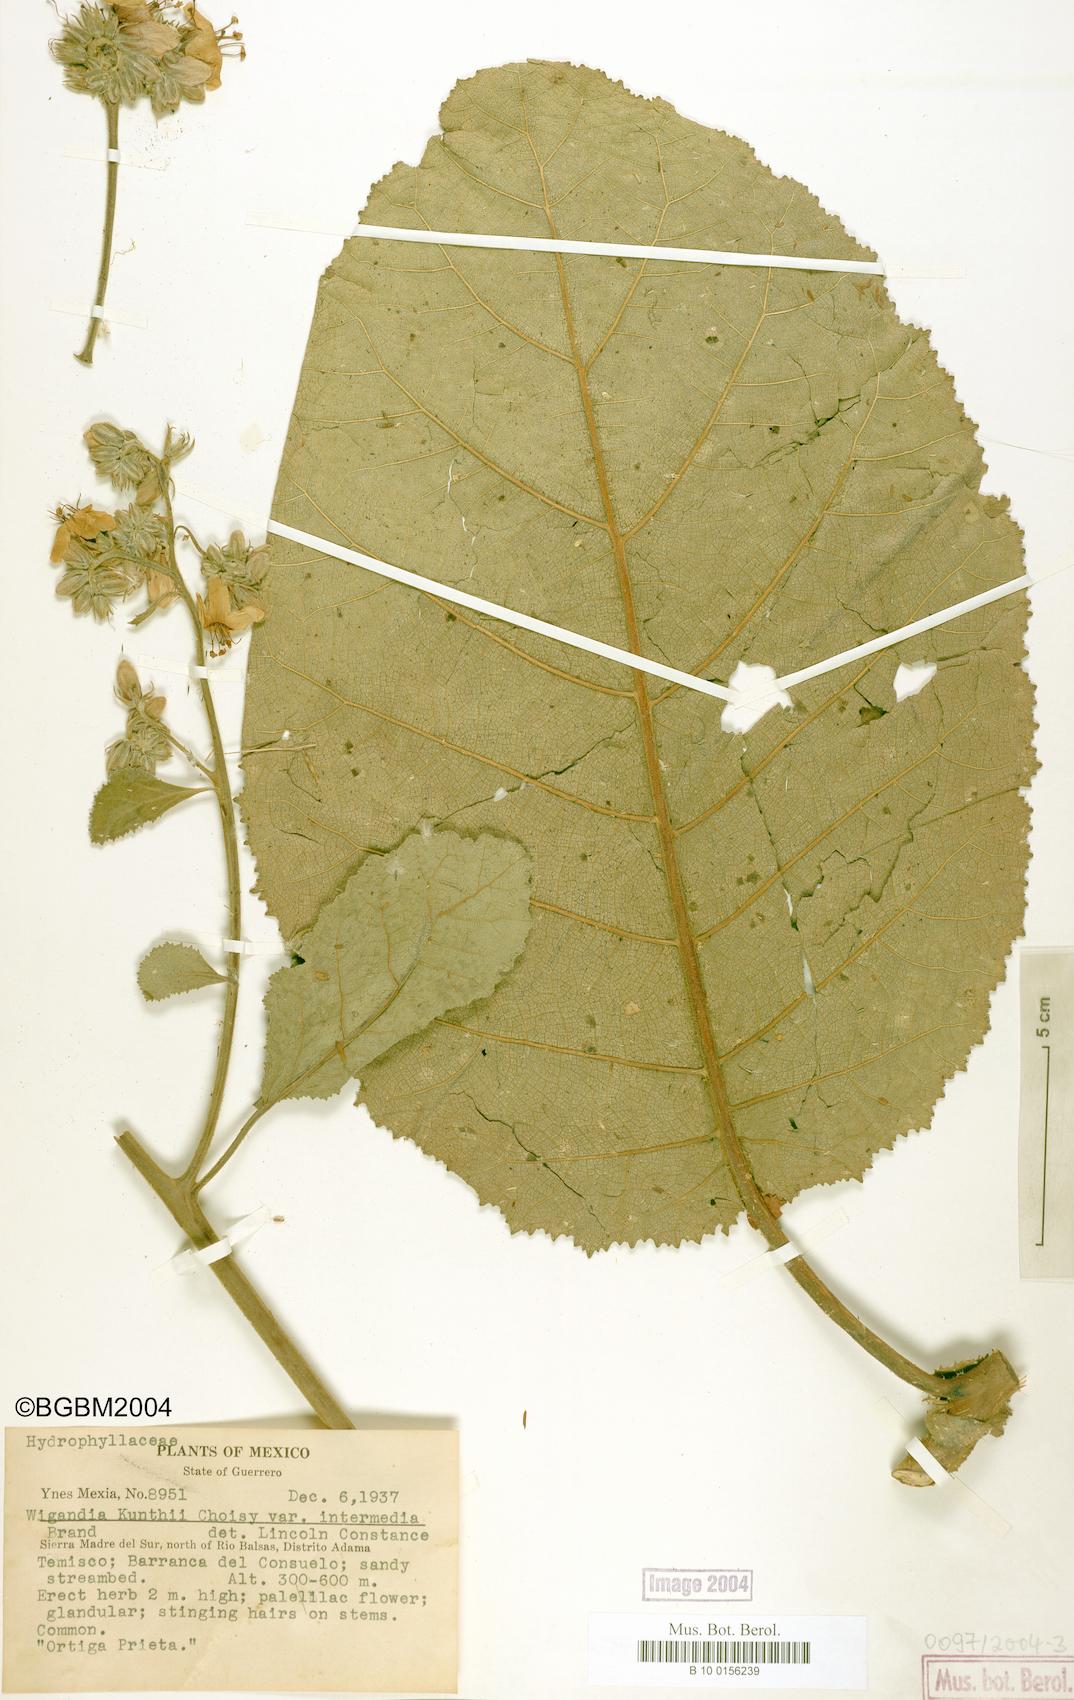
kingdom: Plantae
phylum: Tracheophyta
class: Magnoliopsida
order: Boraginales
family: Namaceae
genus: Wigandia
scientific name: Wigandia urens
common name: Caracus wigandia
